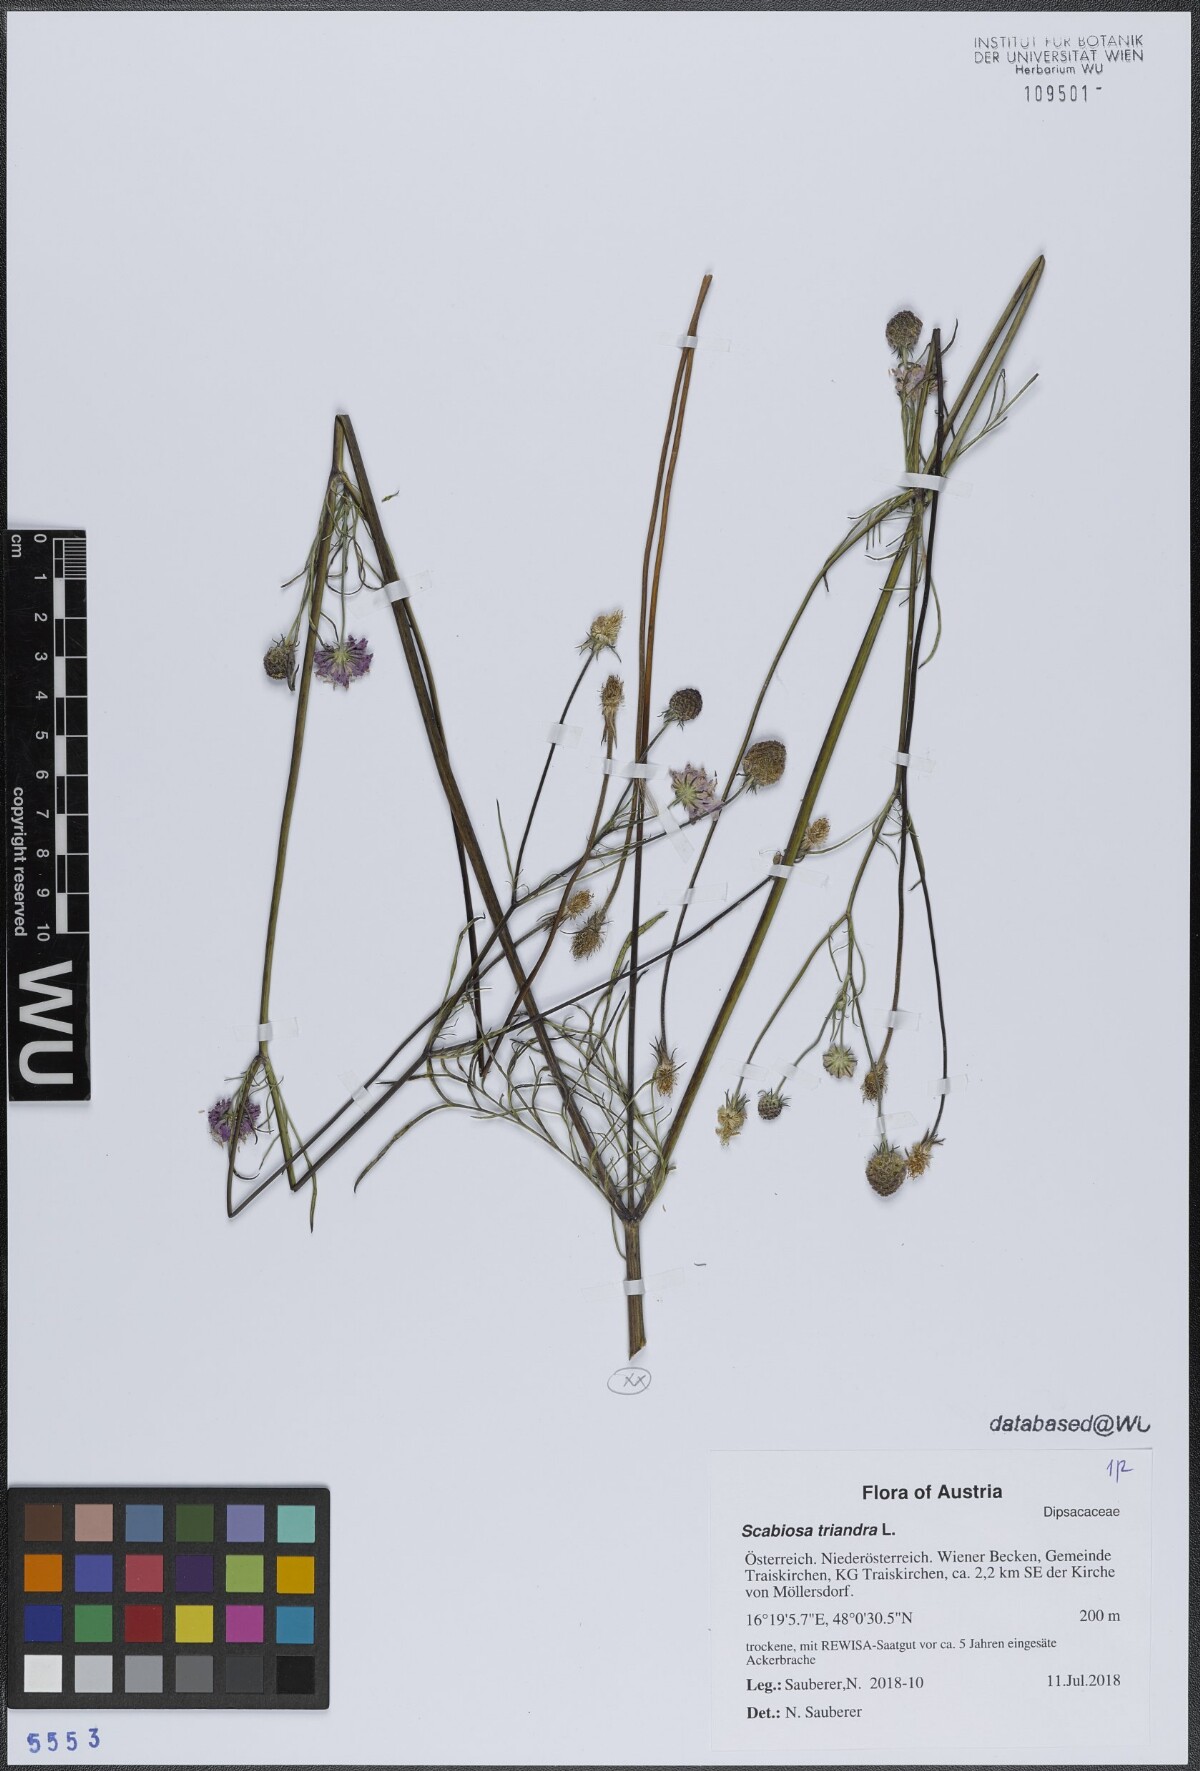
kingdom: Plantae
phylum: Tracheophyta
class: Magnoliopsida
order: Dipsacales
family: Caprifoliaceae
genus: Scabiosa
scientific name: Scabiosa triandra
